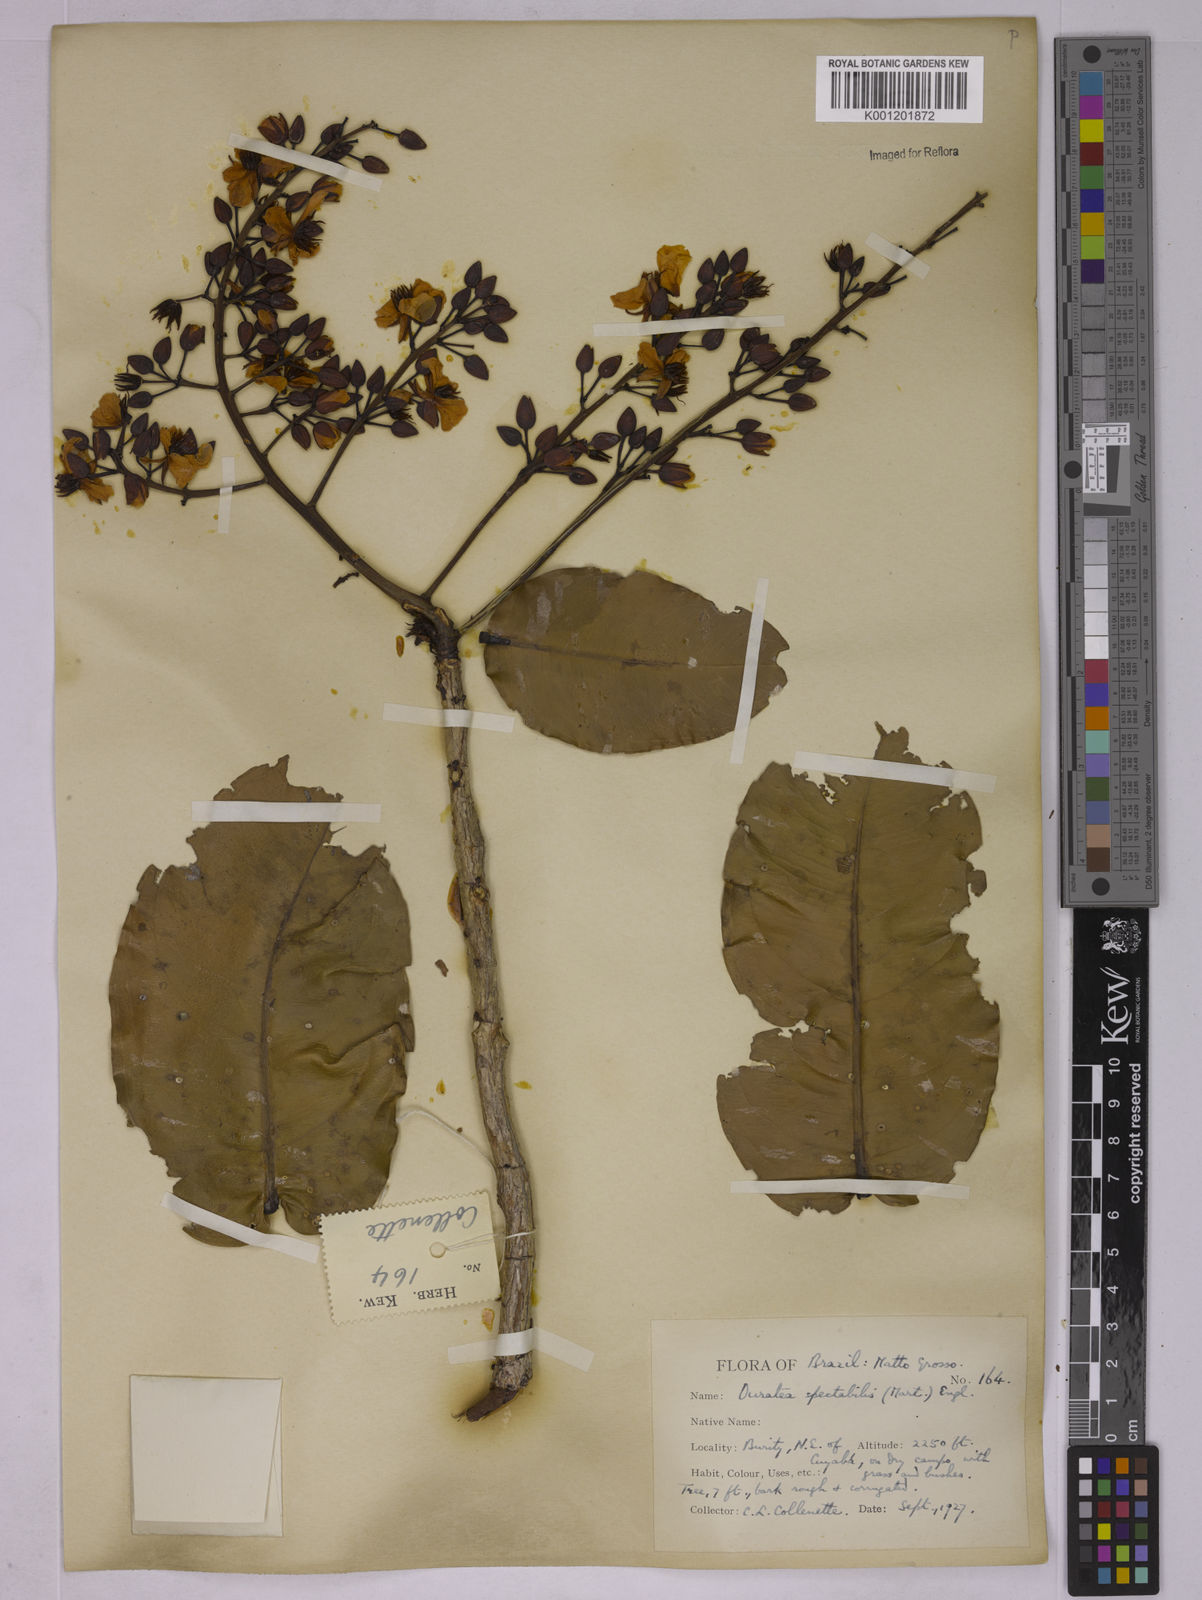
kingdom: Plantae
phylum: Tracheophyta
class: Magnoliopsida
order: Malpighiales
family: Ochnaceae
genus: Ouratea
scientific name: Ouratea spectabilis
